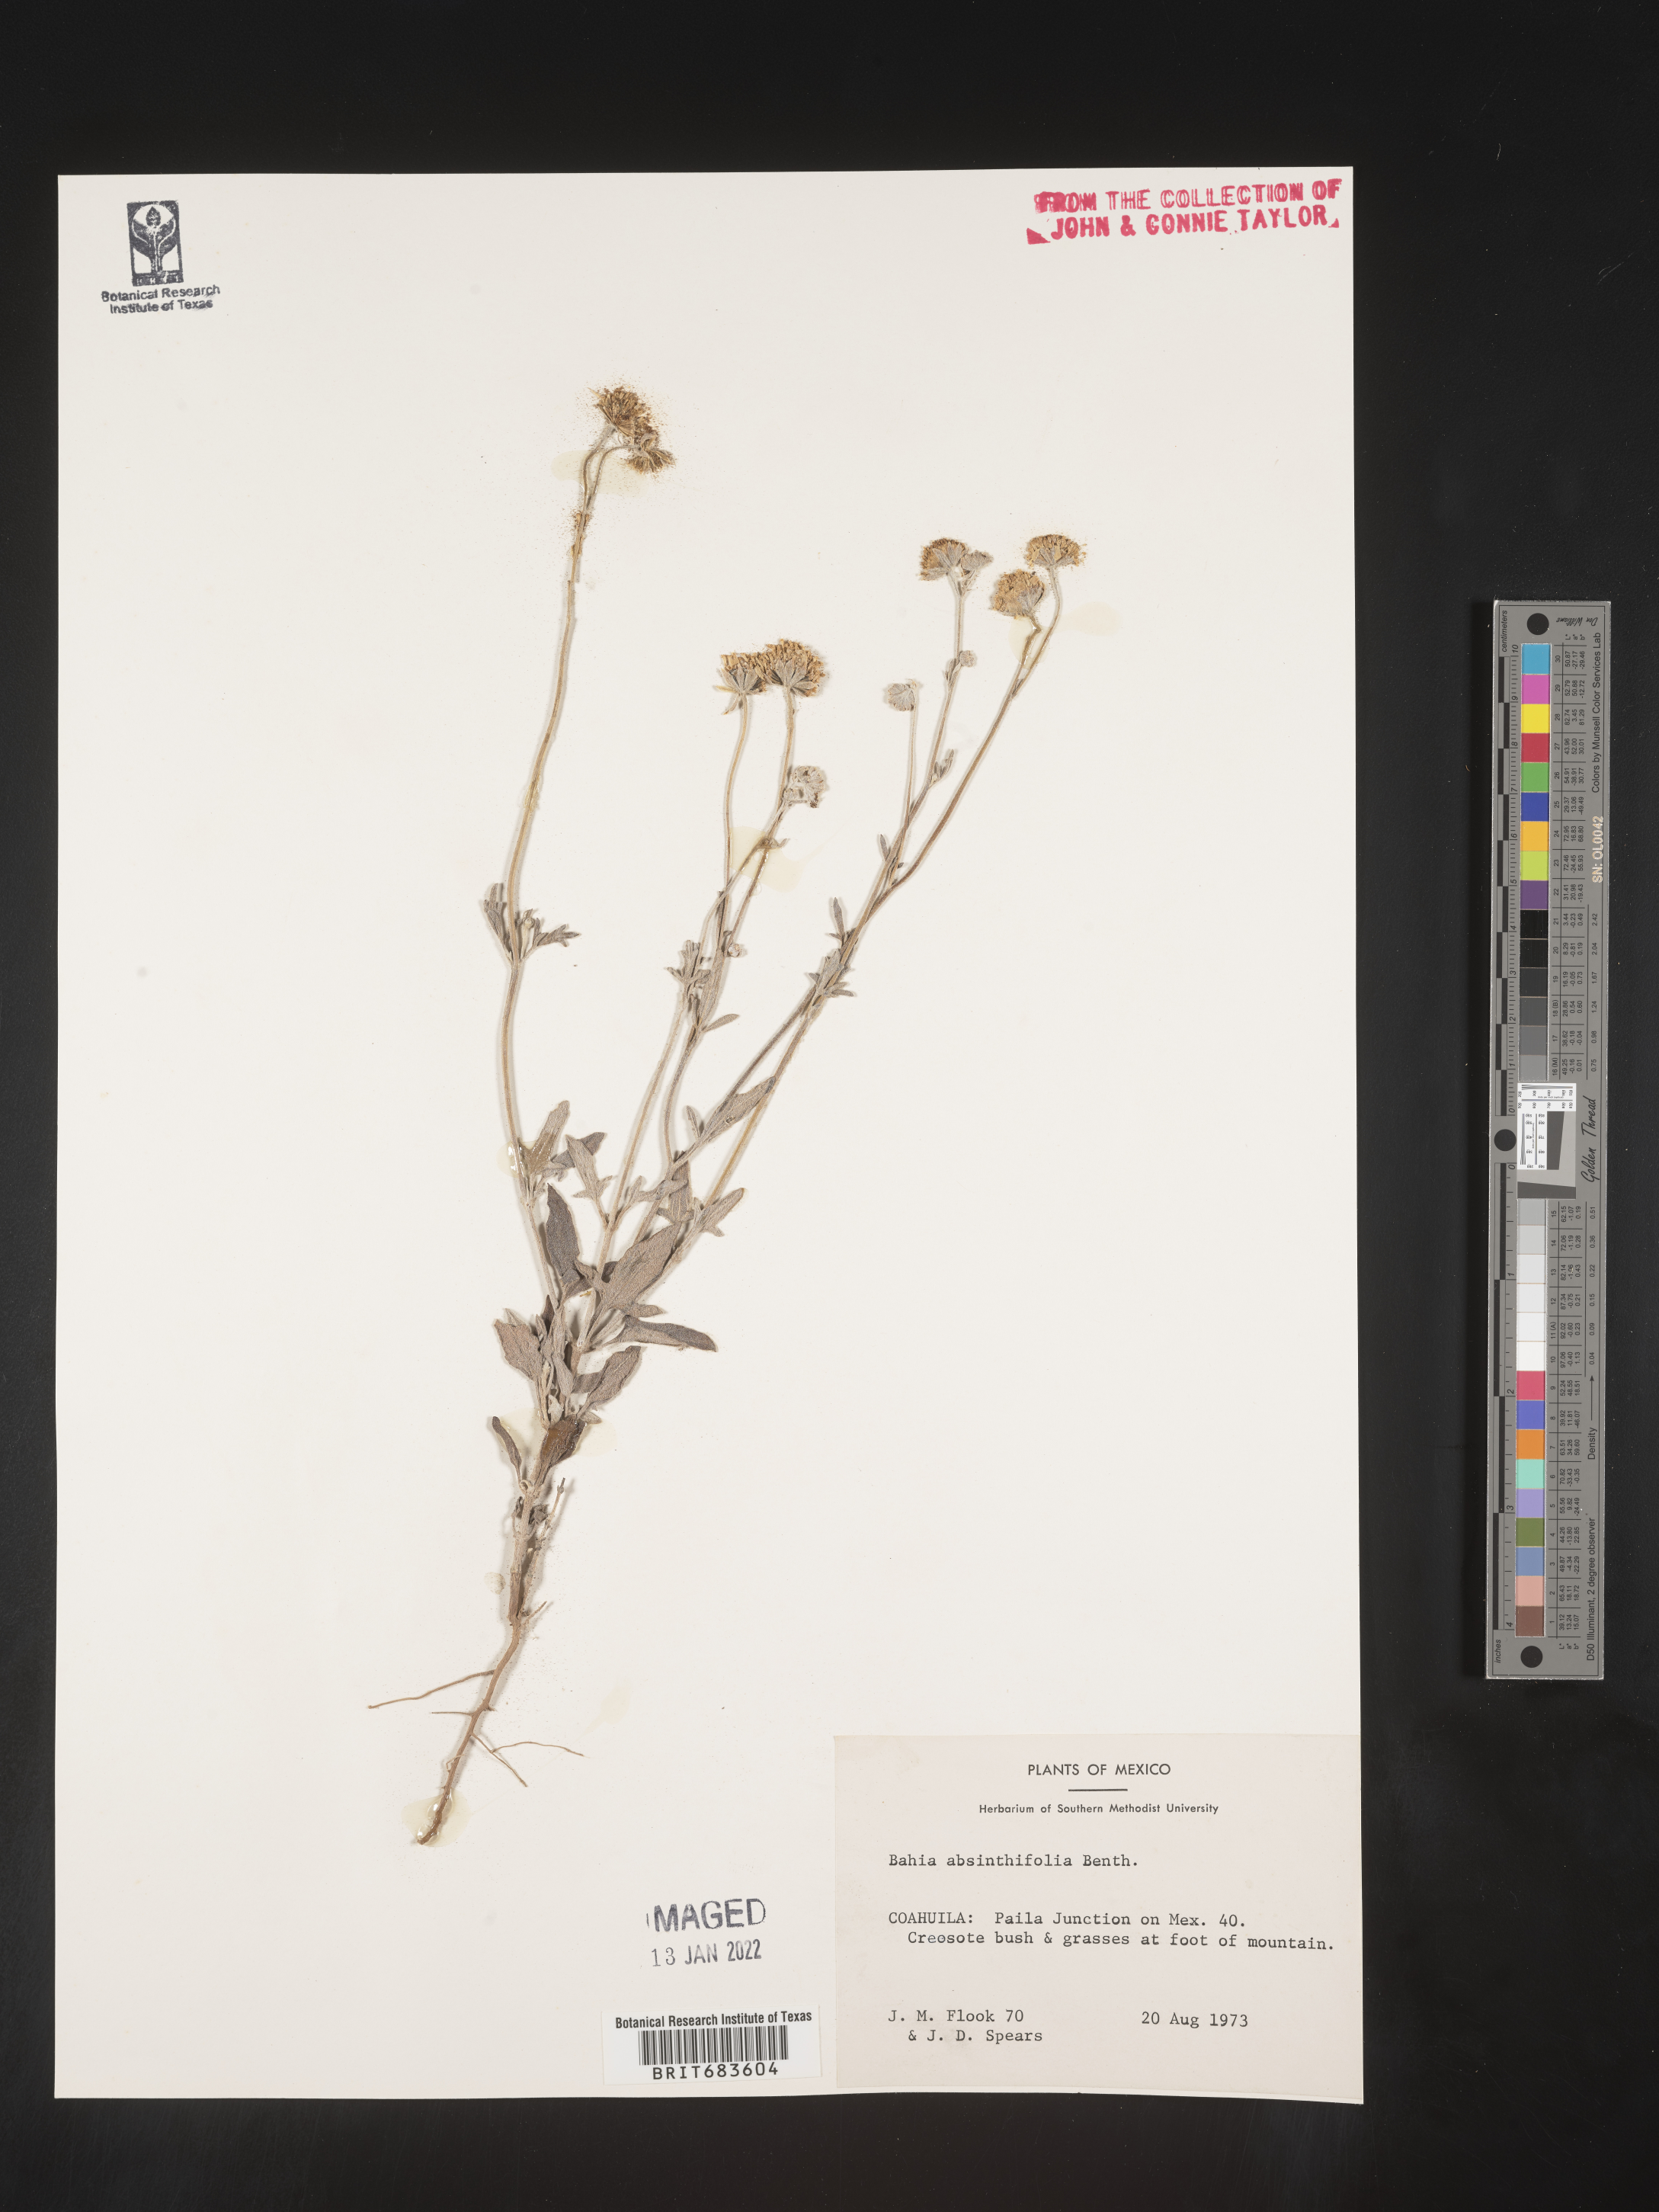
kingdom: Plantae
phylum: Tracheophyta
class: Magnoliopsida
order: Asterales
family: Asteraceae
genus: Picradeniopsis
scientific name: Picradeniopsis absinthifolia
